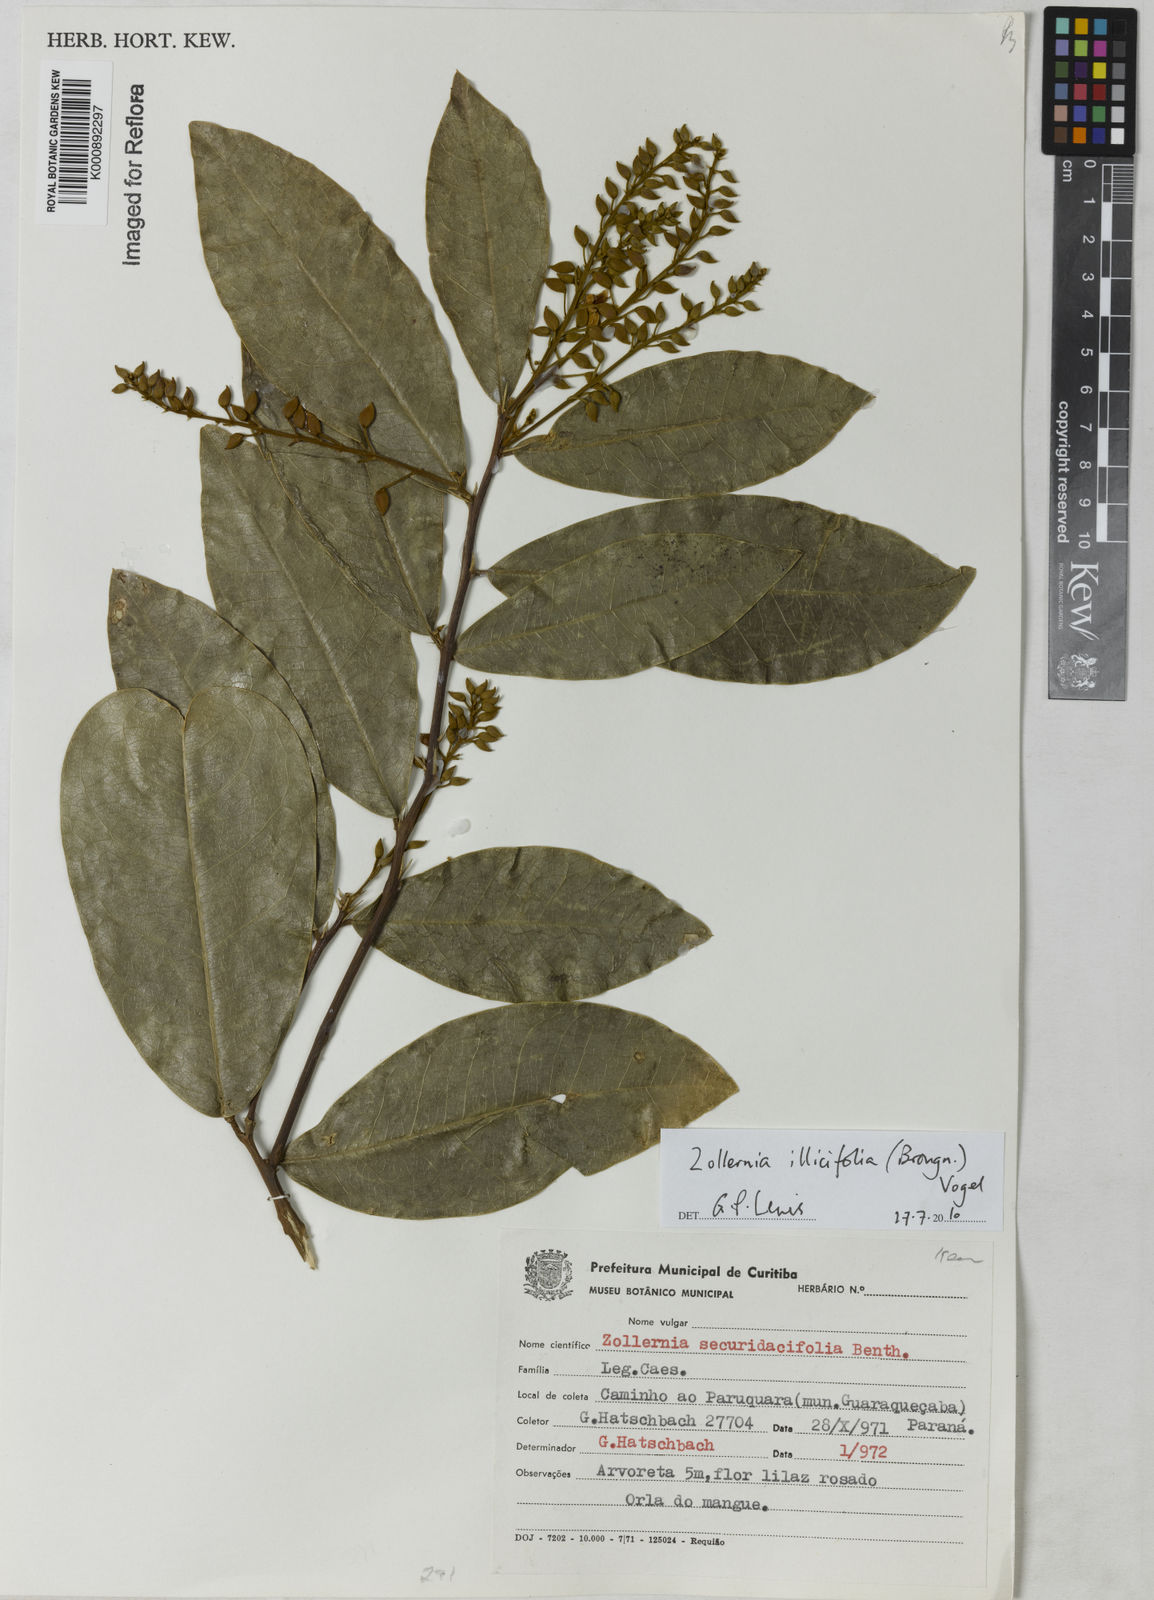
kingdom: Plantae
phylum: Tracheophyta
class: Magnoliopsida
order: Fabales
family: Fabaceae
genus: Zollernia
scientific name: Zollernia ilicifolia
